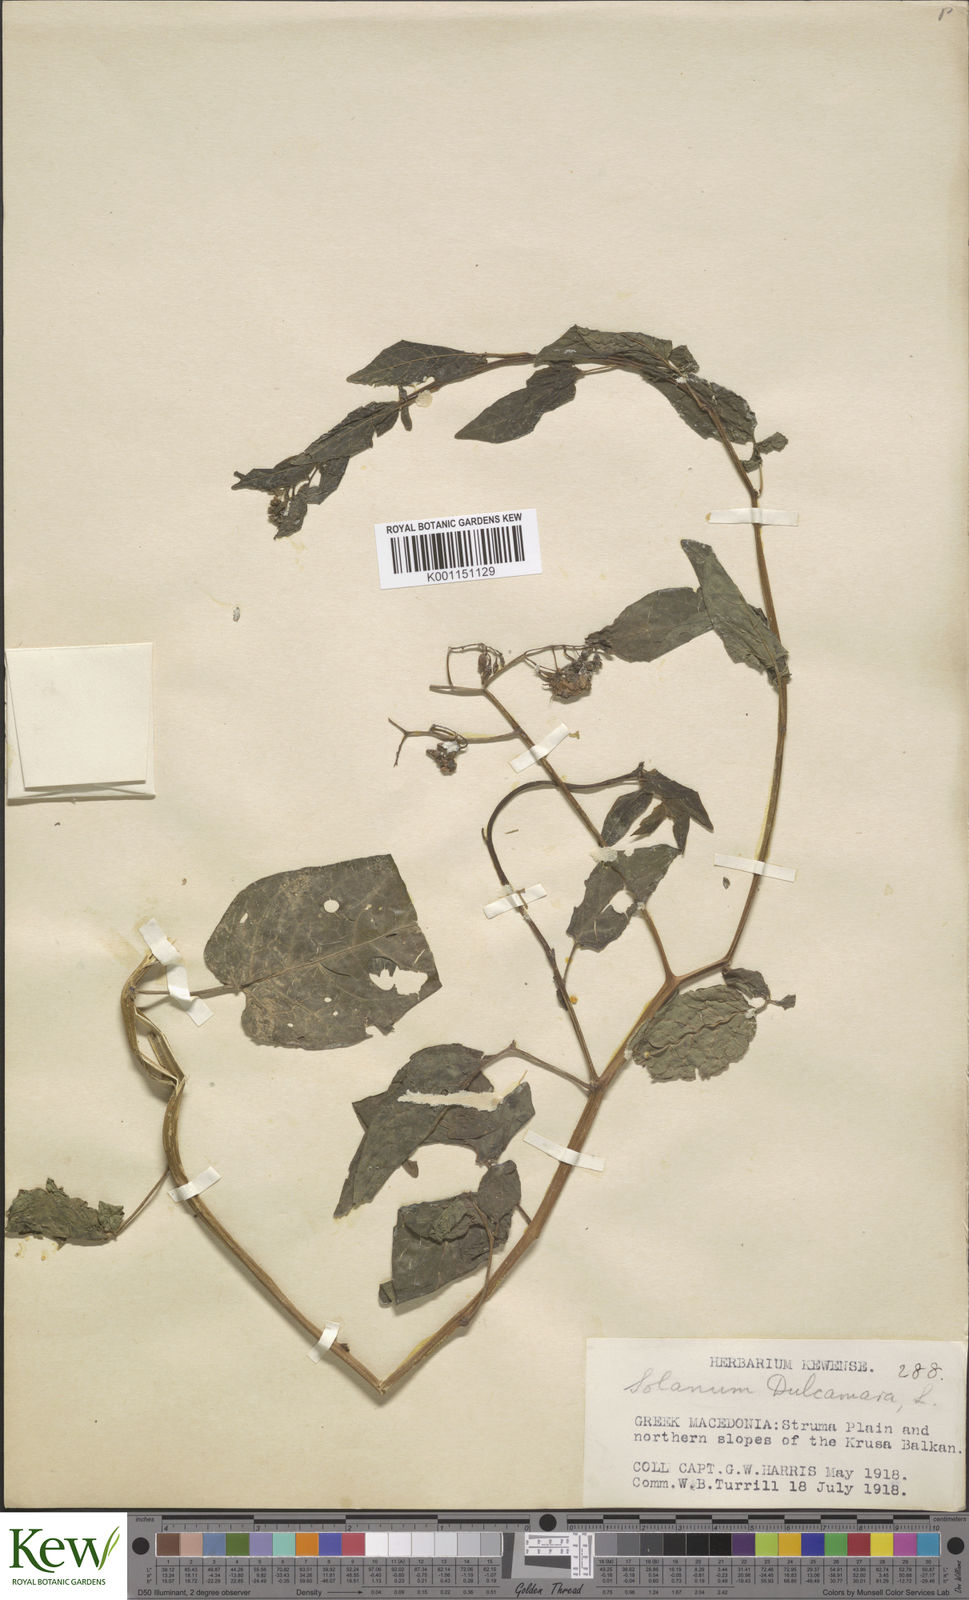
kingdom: Plantae
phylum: Tracheophyta
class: Magnoliopsida
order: Solanales
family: Solanaceae
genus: Solanum
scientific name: Solanum dulcamara
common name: Climbing nightshade
